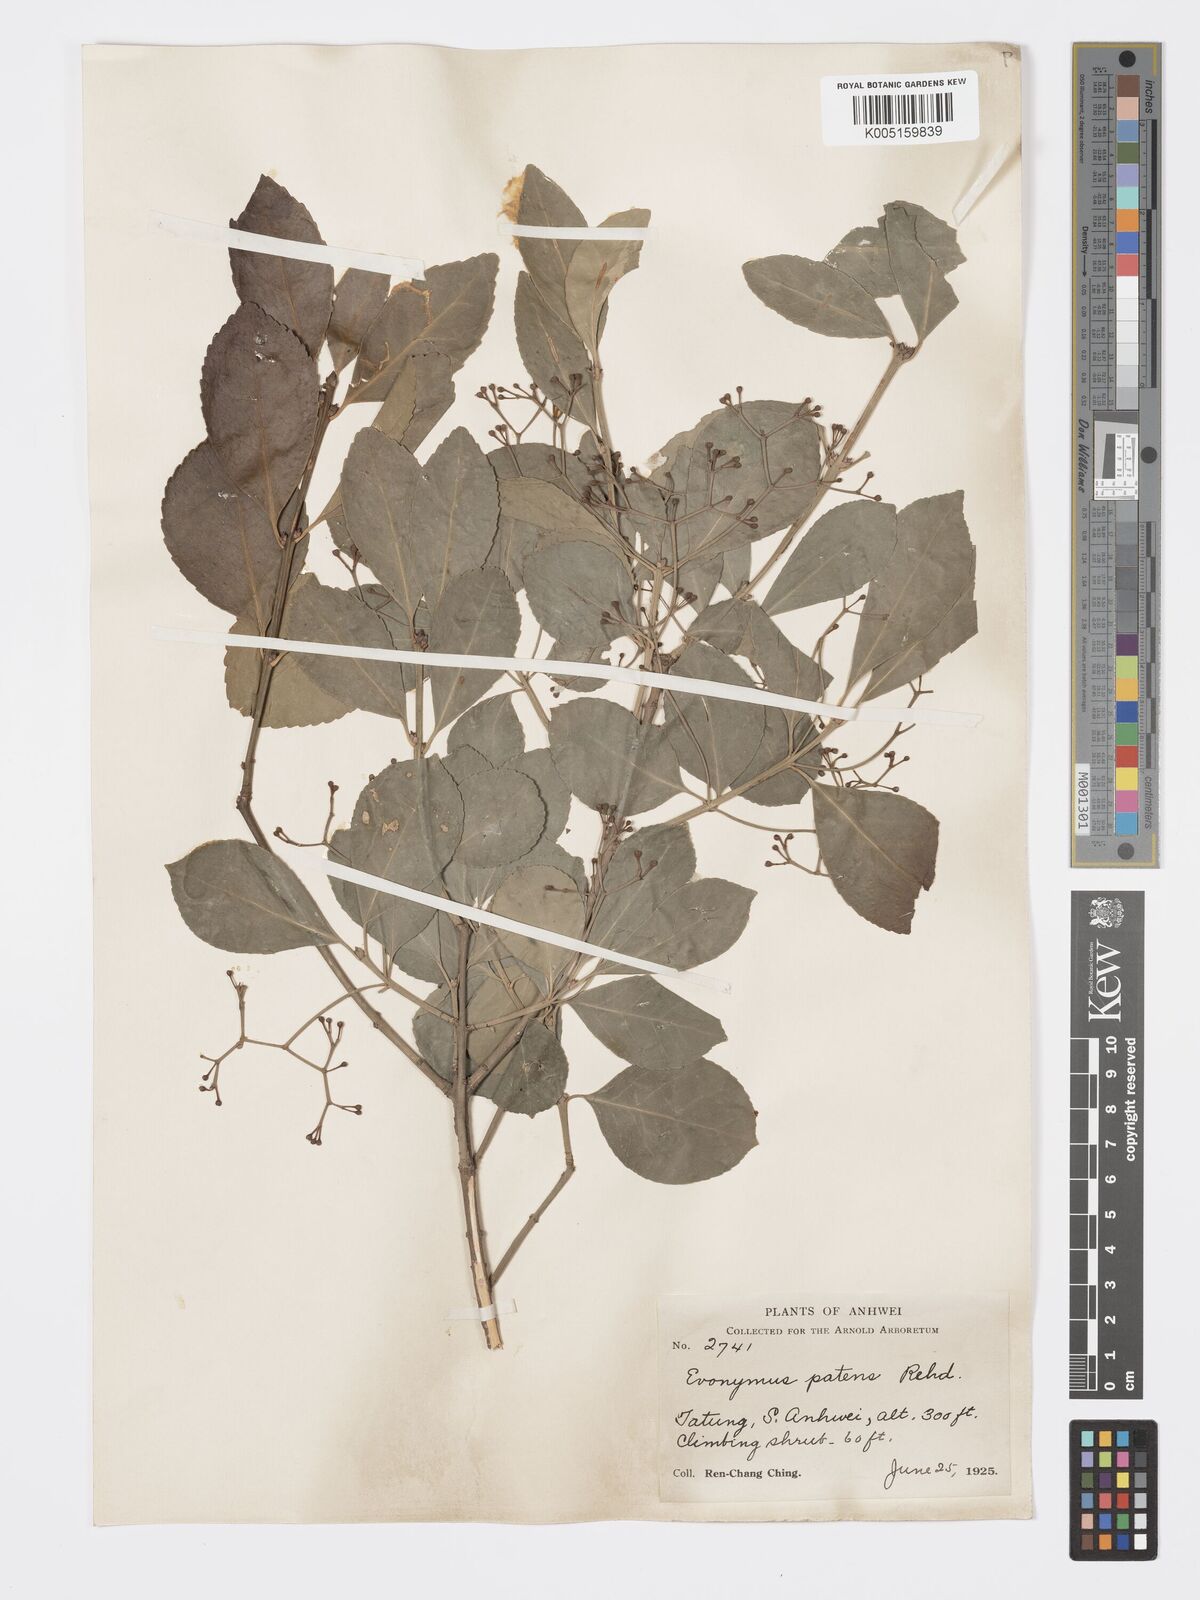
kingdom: Plantae
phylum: Tracheophyta
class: Magnoliopsida
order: Celastrales
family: Celastraceae
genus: Euonymus
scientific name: Euonymus
